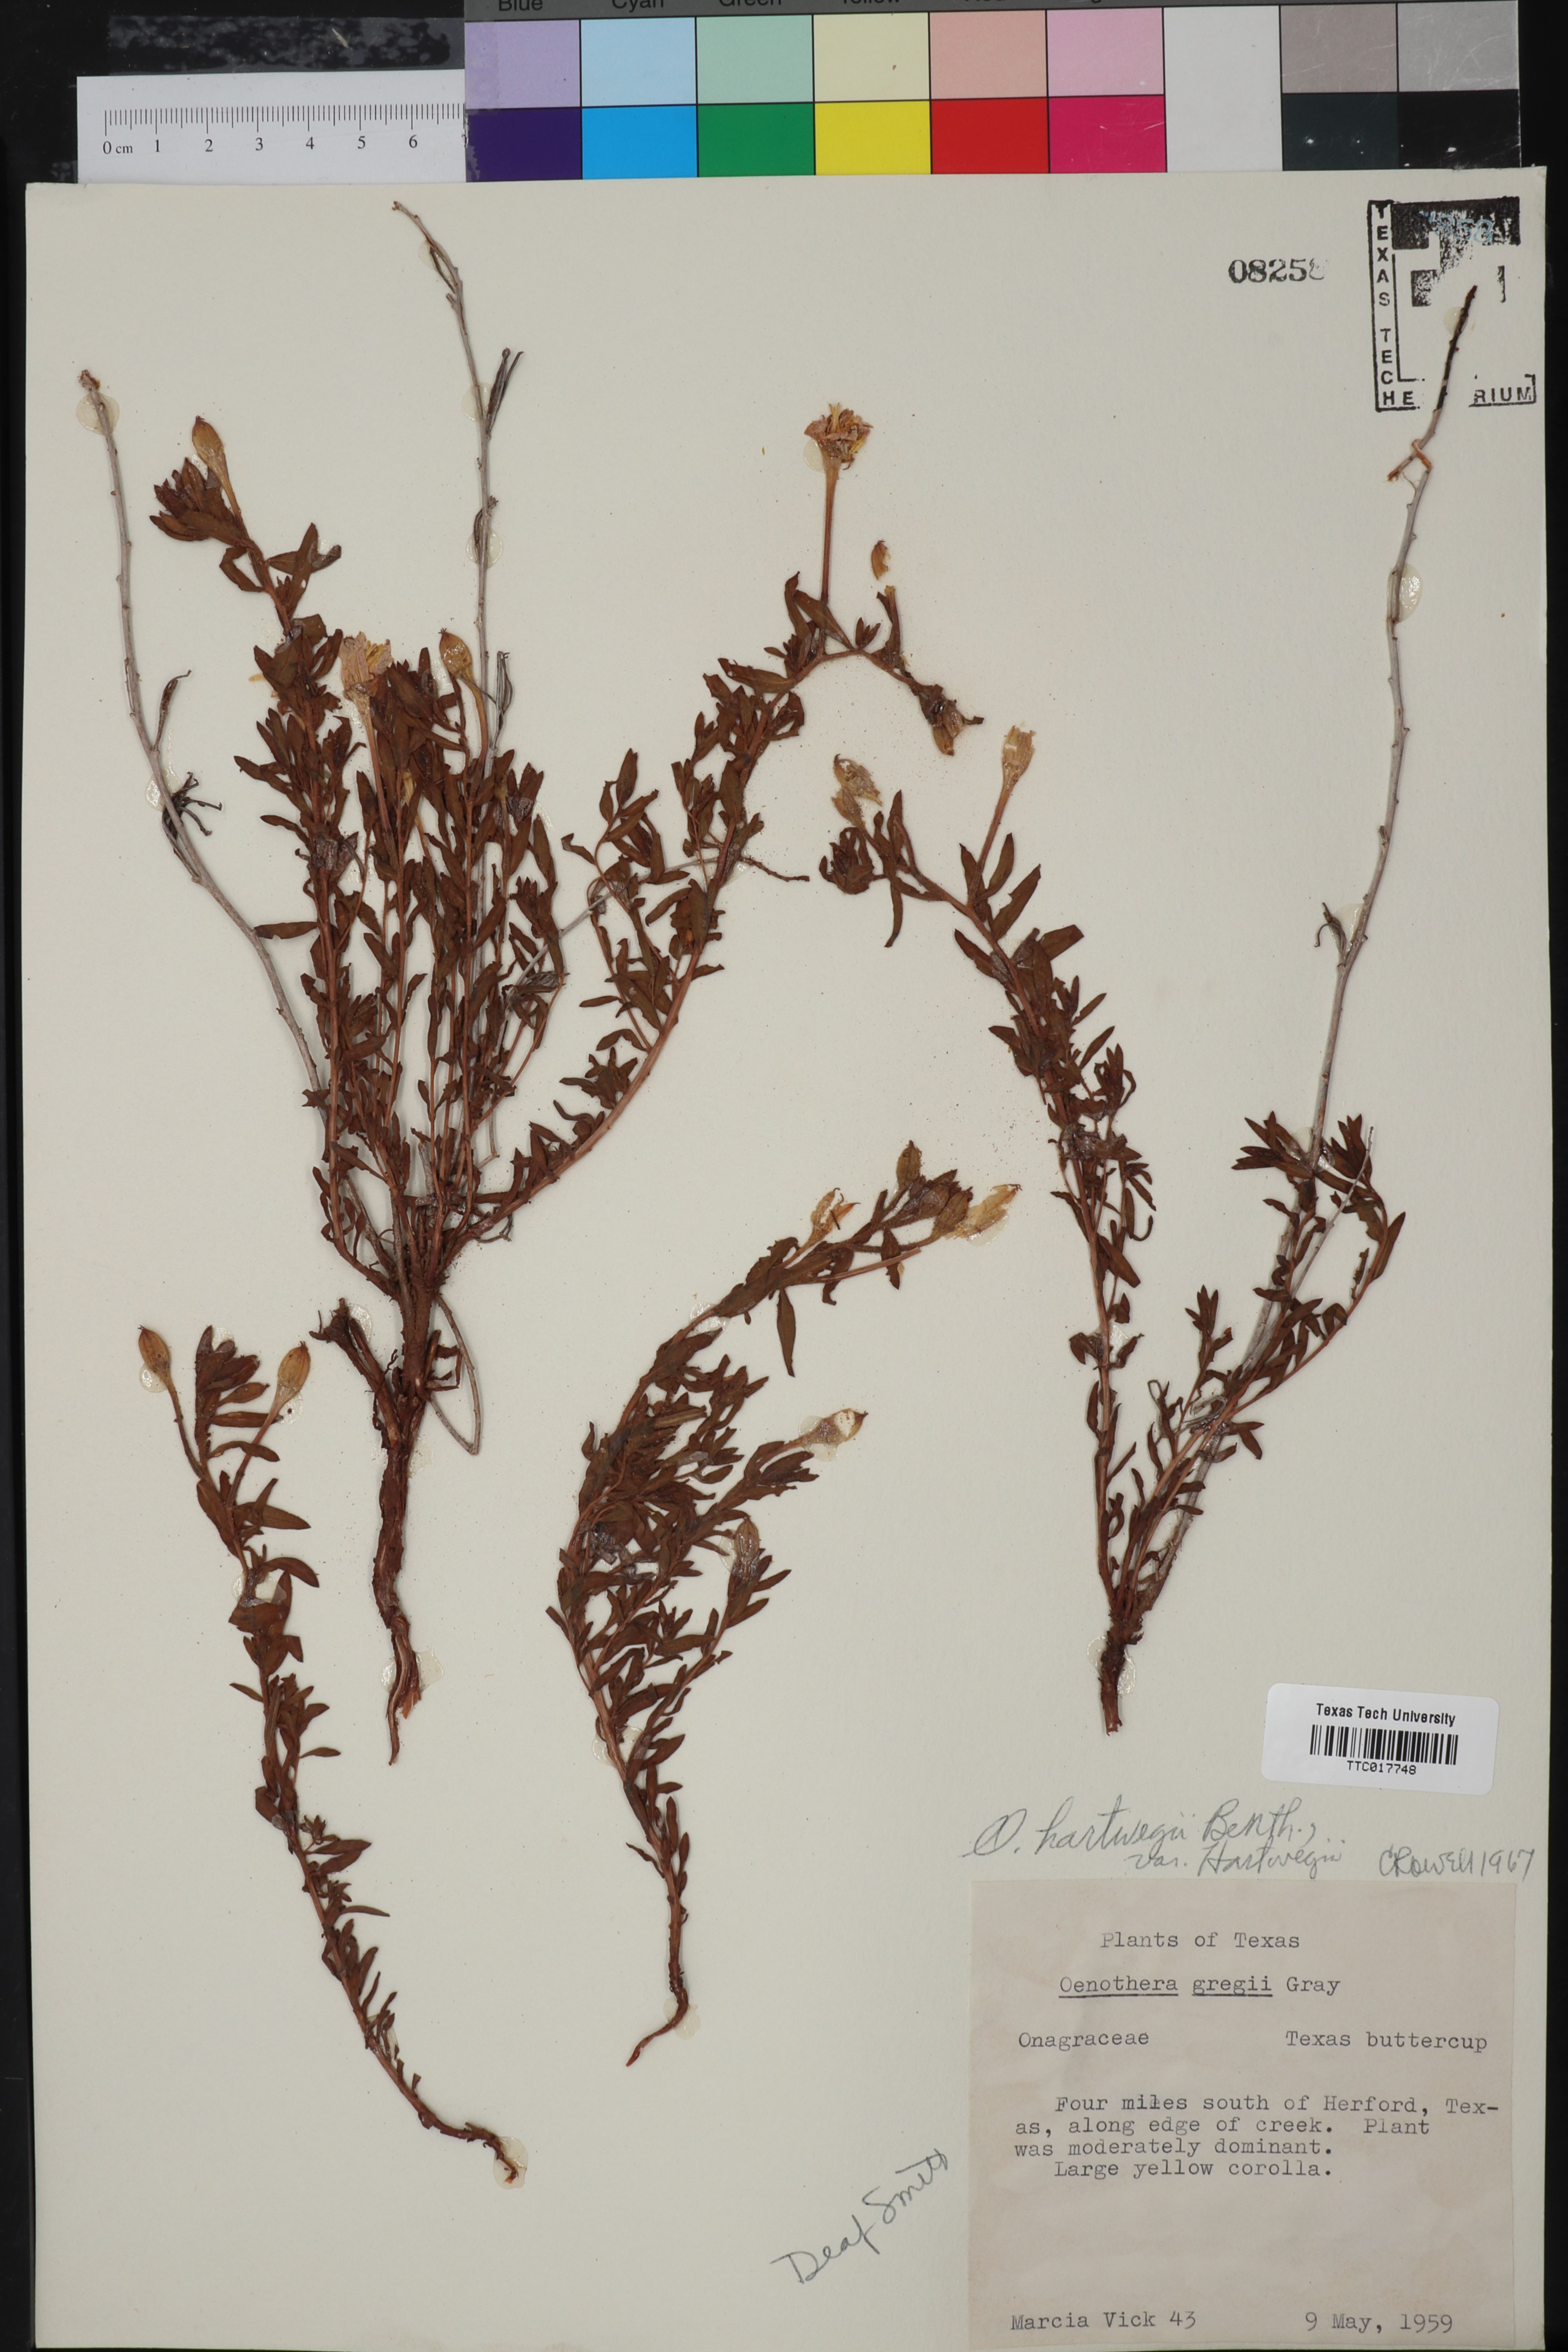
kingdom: Plantae
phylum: Tracheophyta
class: Magnoliopsida
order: Myrtales
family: Onagraceae
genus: Oenothera
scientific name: Oenothera hartwegii
